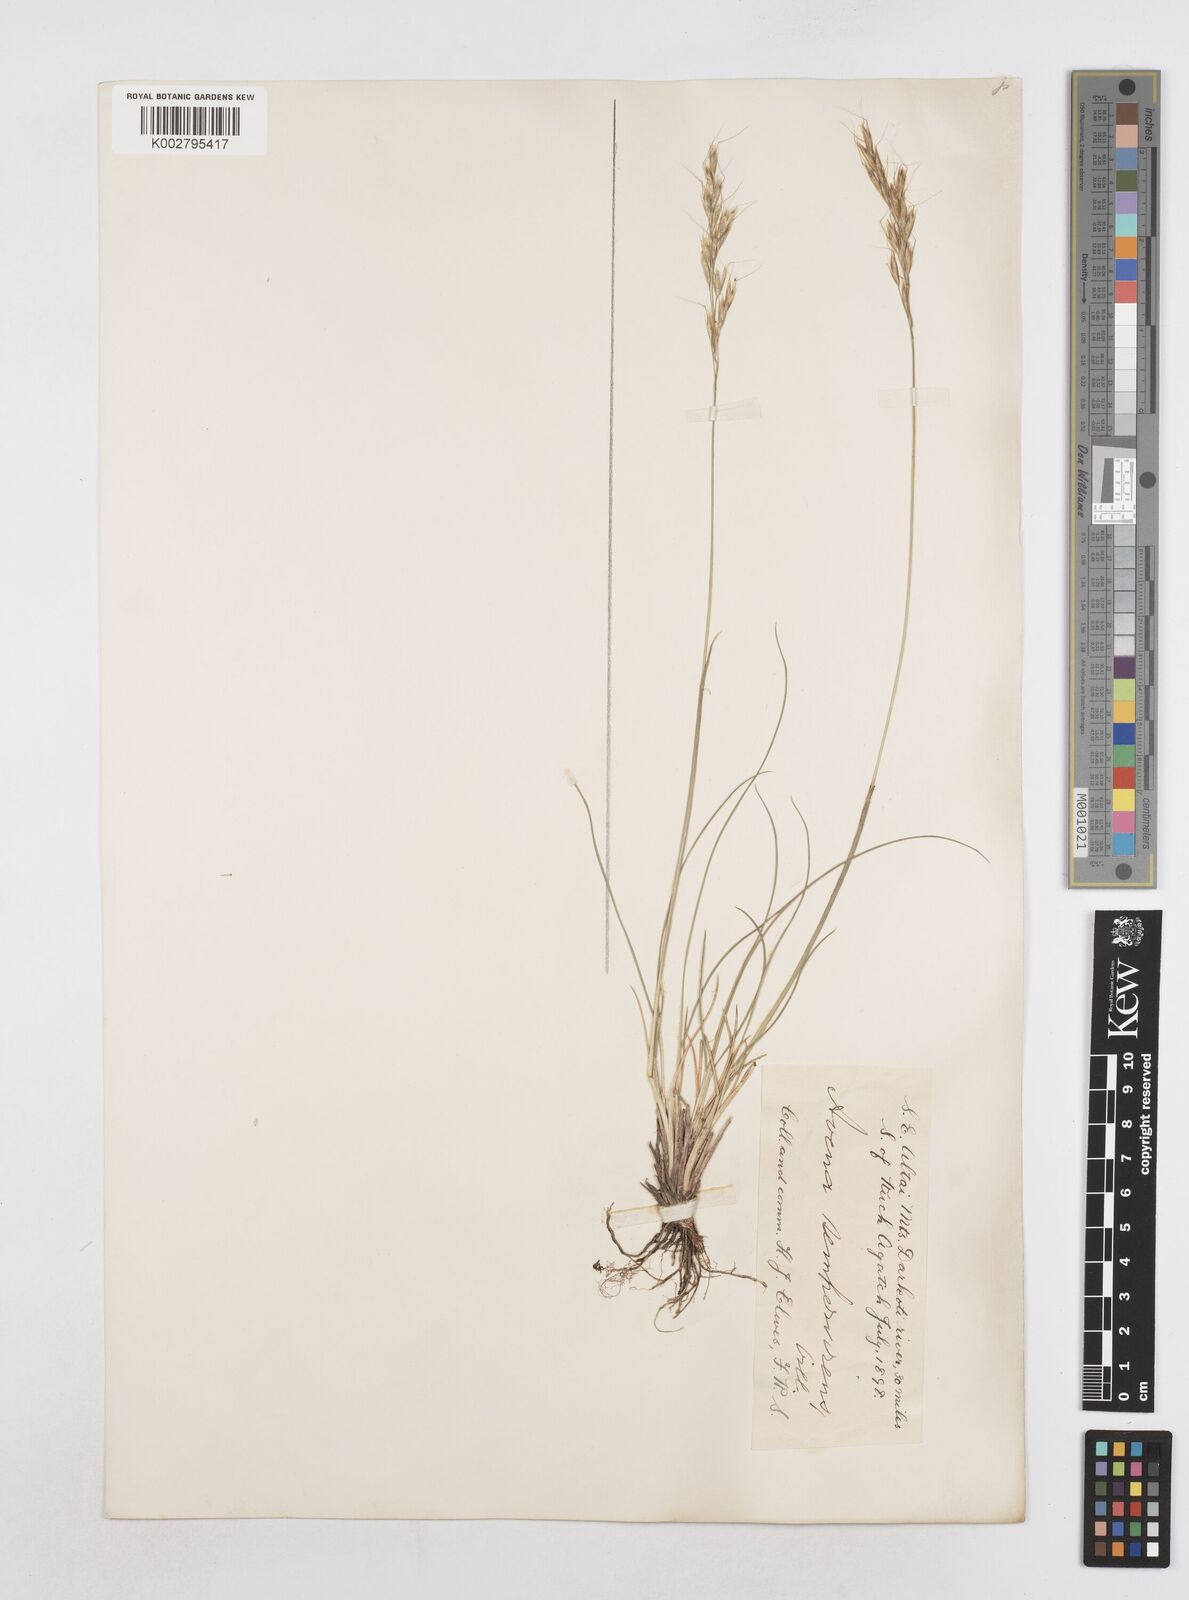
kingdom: Plantae
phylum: Tracheophyta
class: Liliopsida
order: Poales
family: Poaceae
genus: Helictotrichon
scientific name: Helictotrichon sempervirens
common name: Blue oat-grass
